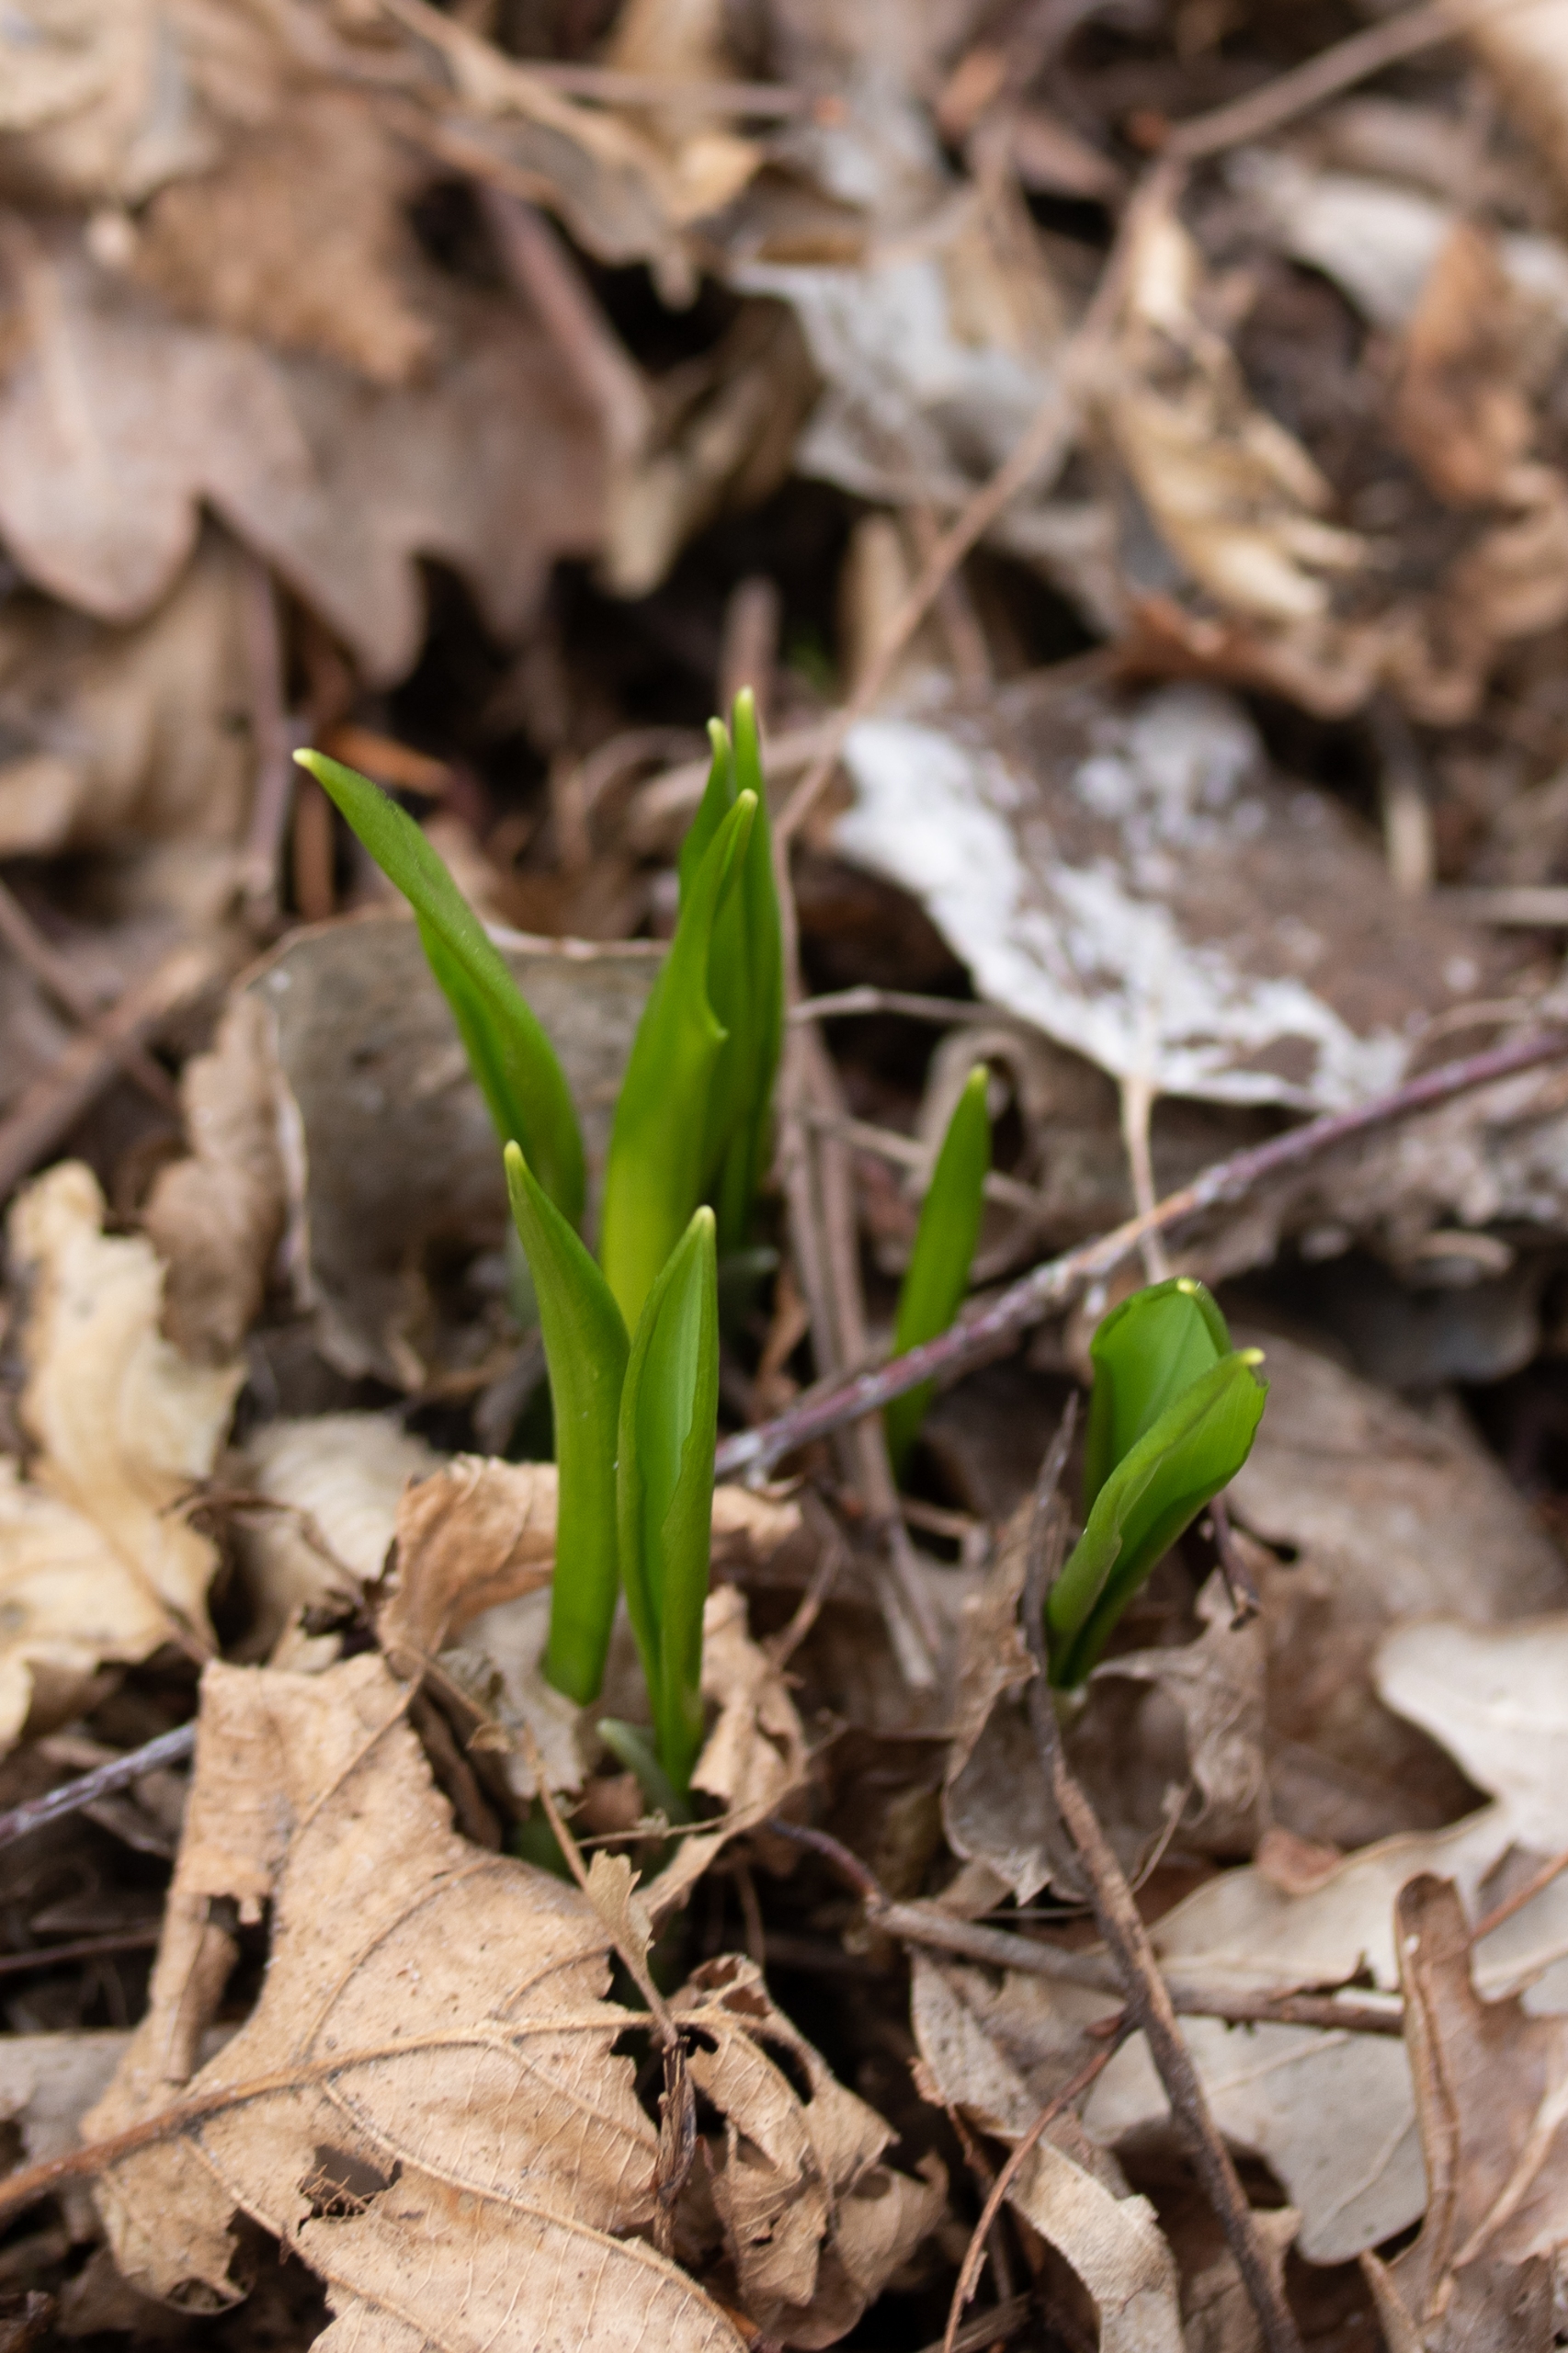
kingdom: Plantae
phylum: Tracheophyta
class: Liliopsida
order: Asparagales
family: Amaryllidaceae
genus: Allium
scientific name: Allium ursinum
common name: Rams-løg
